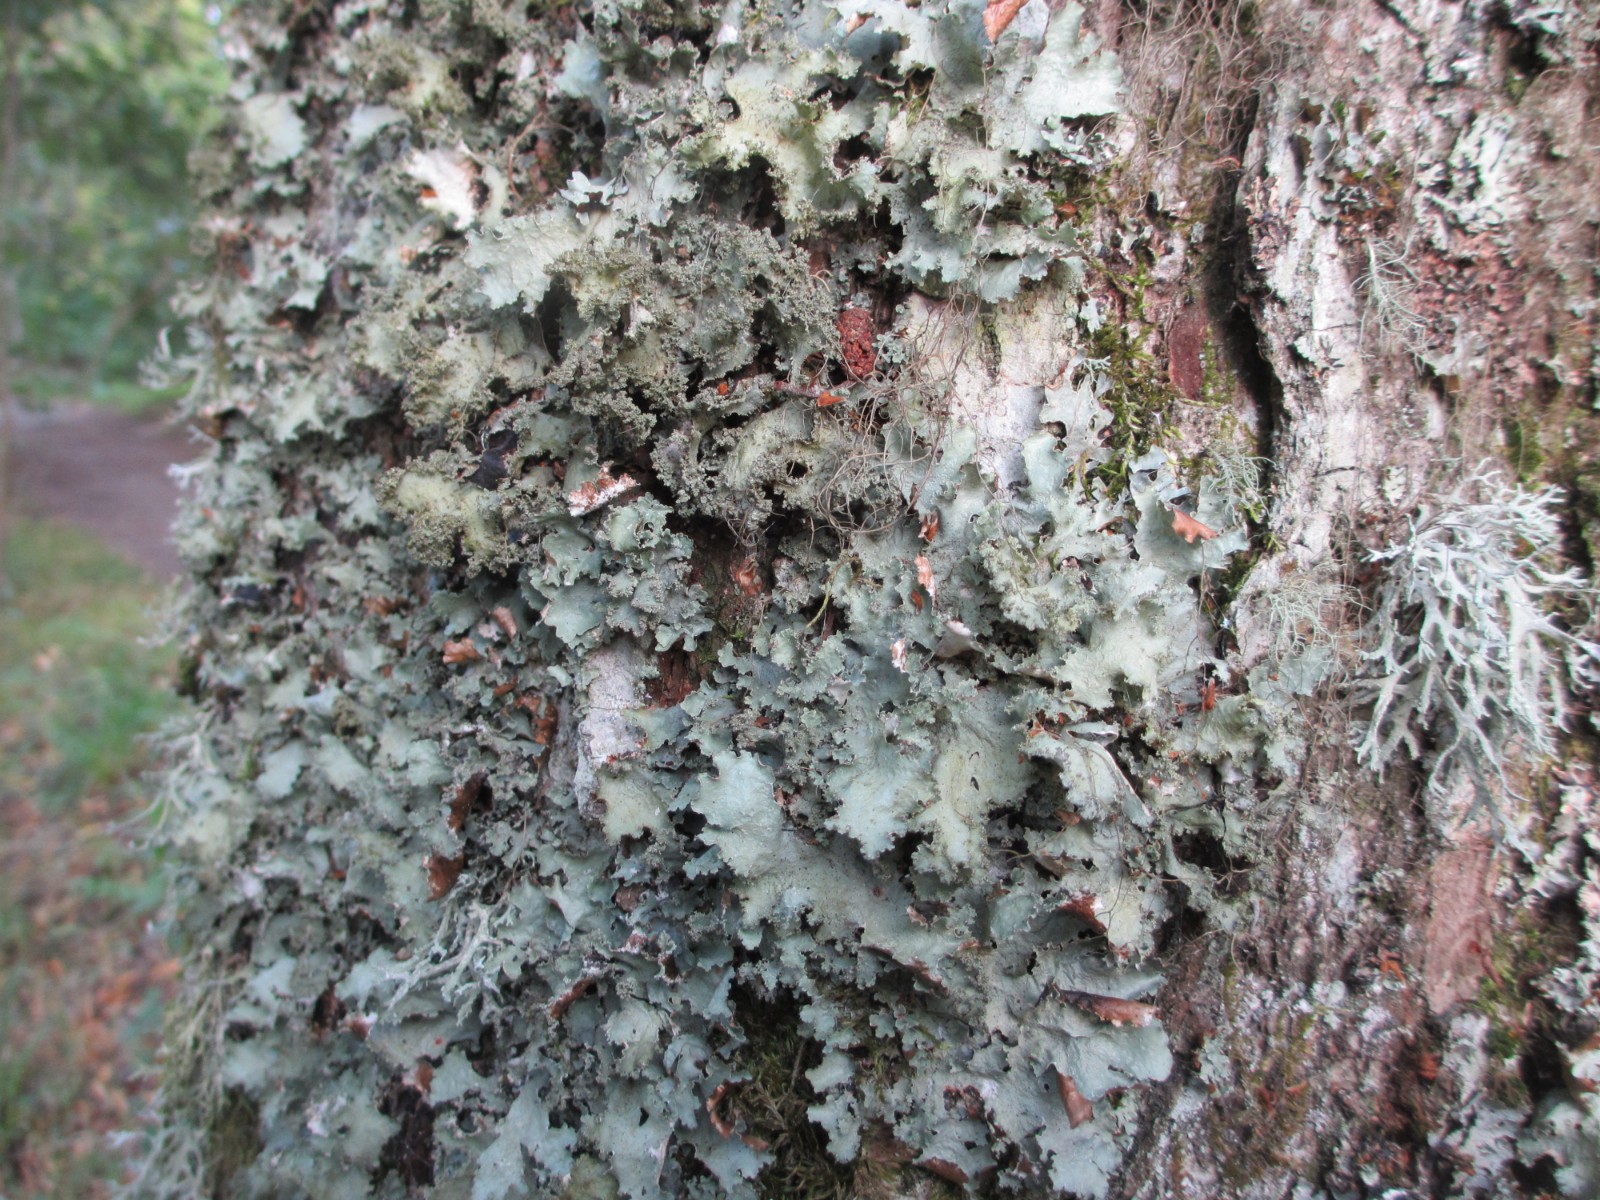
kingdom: Fungi
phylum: Ascomycota
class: Lecanoromycetes
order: Lecanorales
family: Parmeliaceae
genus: Platismatia
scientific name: Platismatia glauca
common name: blågrå papirlav
